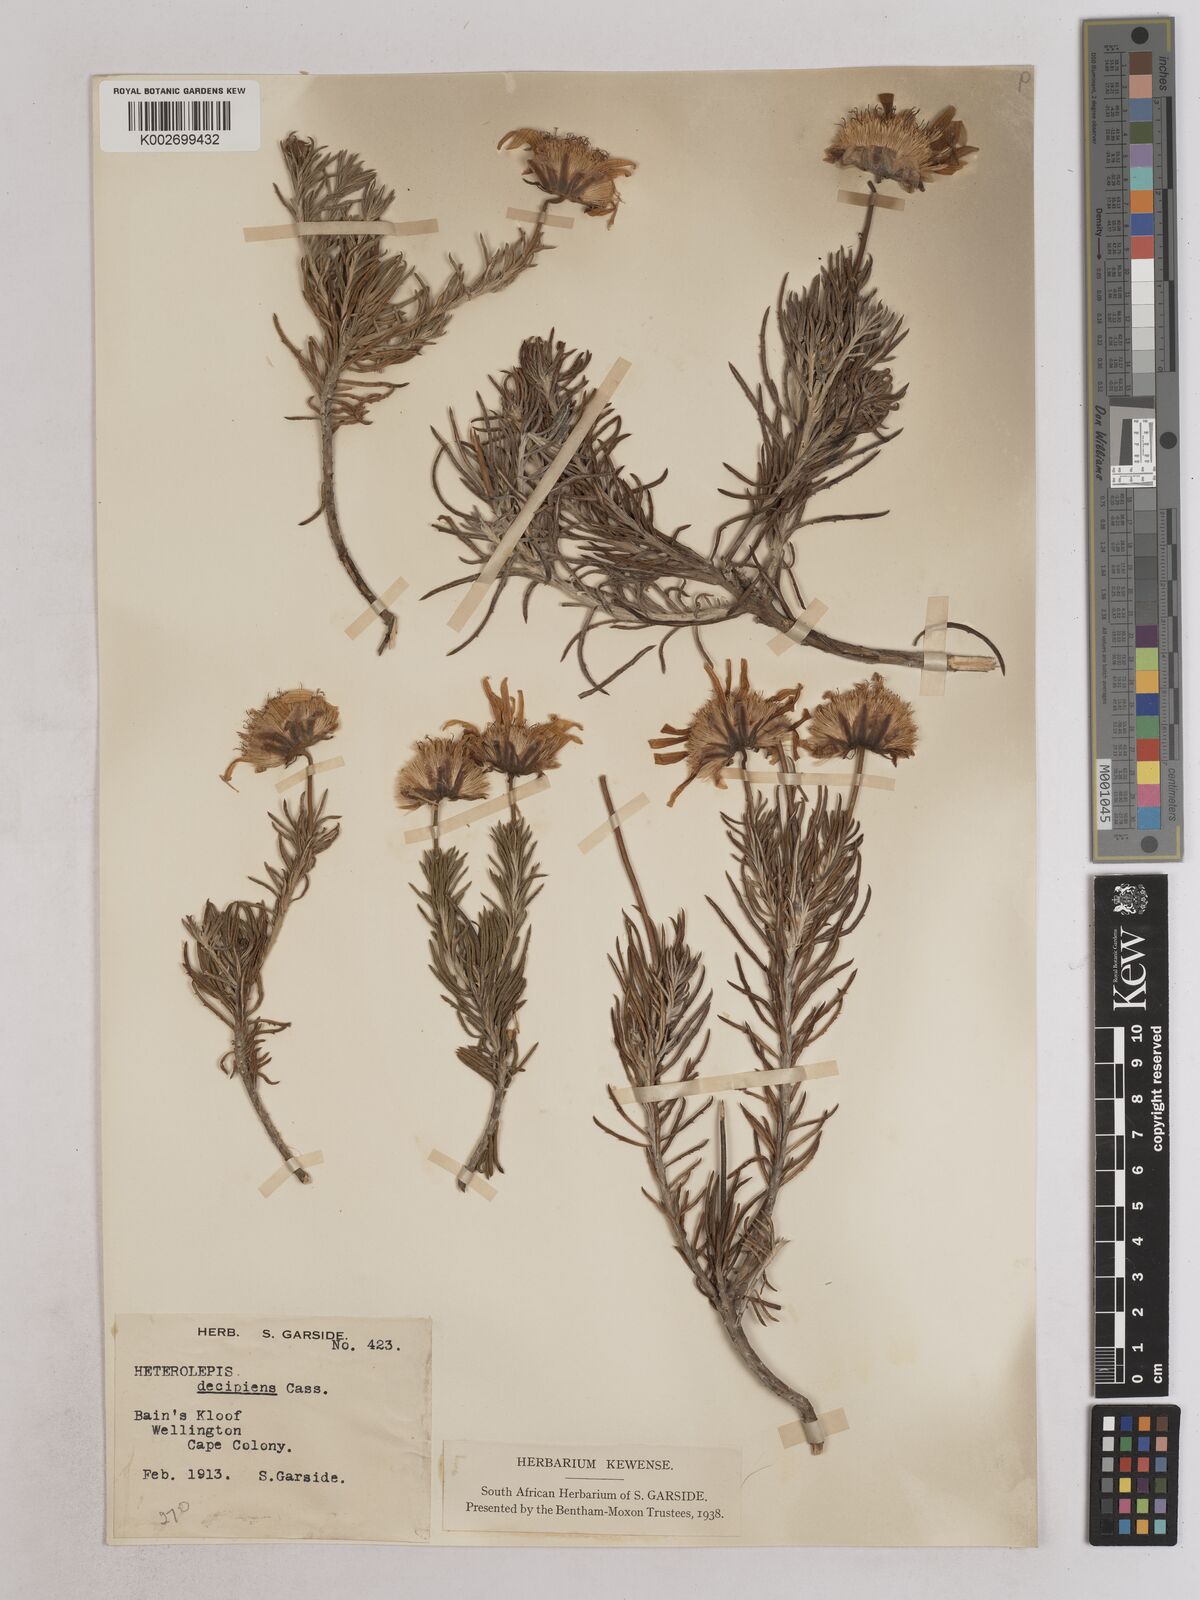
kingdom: Plantae
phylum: Tracheophyta
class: Magnoliopsida
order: Asterales
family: Asteraceae
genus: Heterolepis
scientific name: Heterolepis aliena
